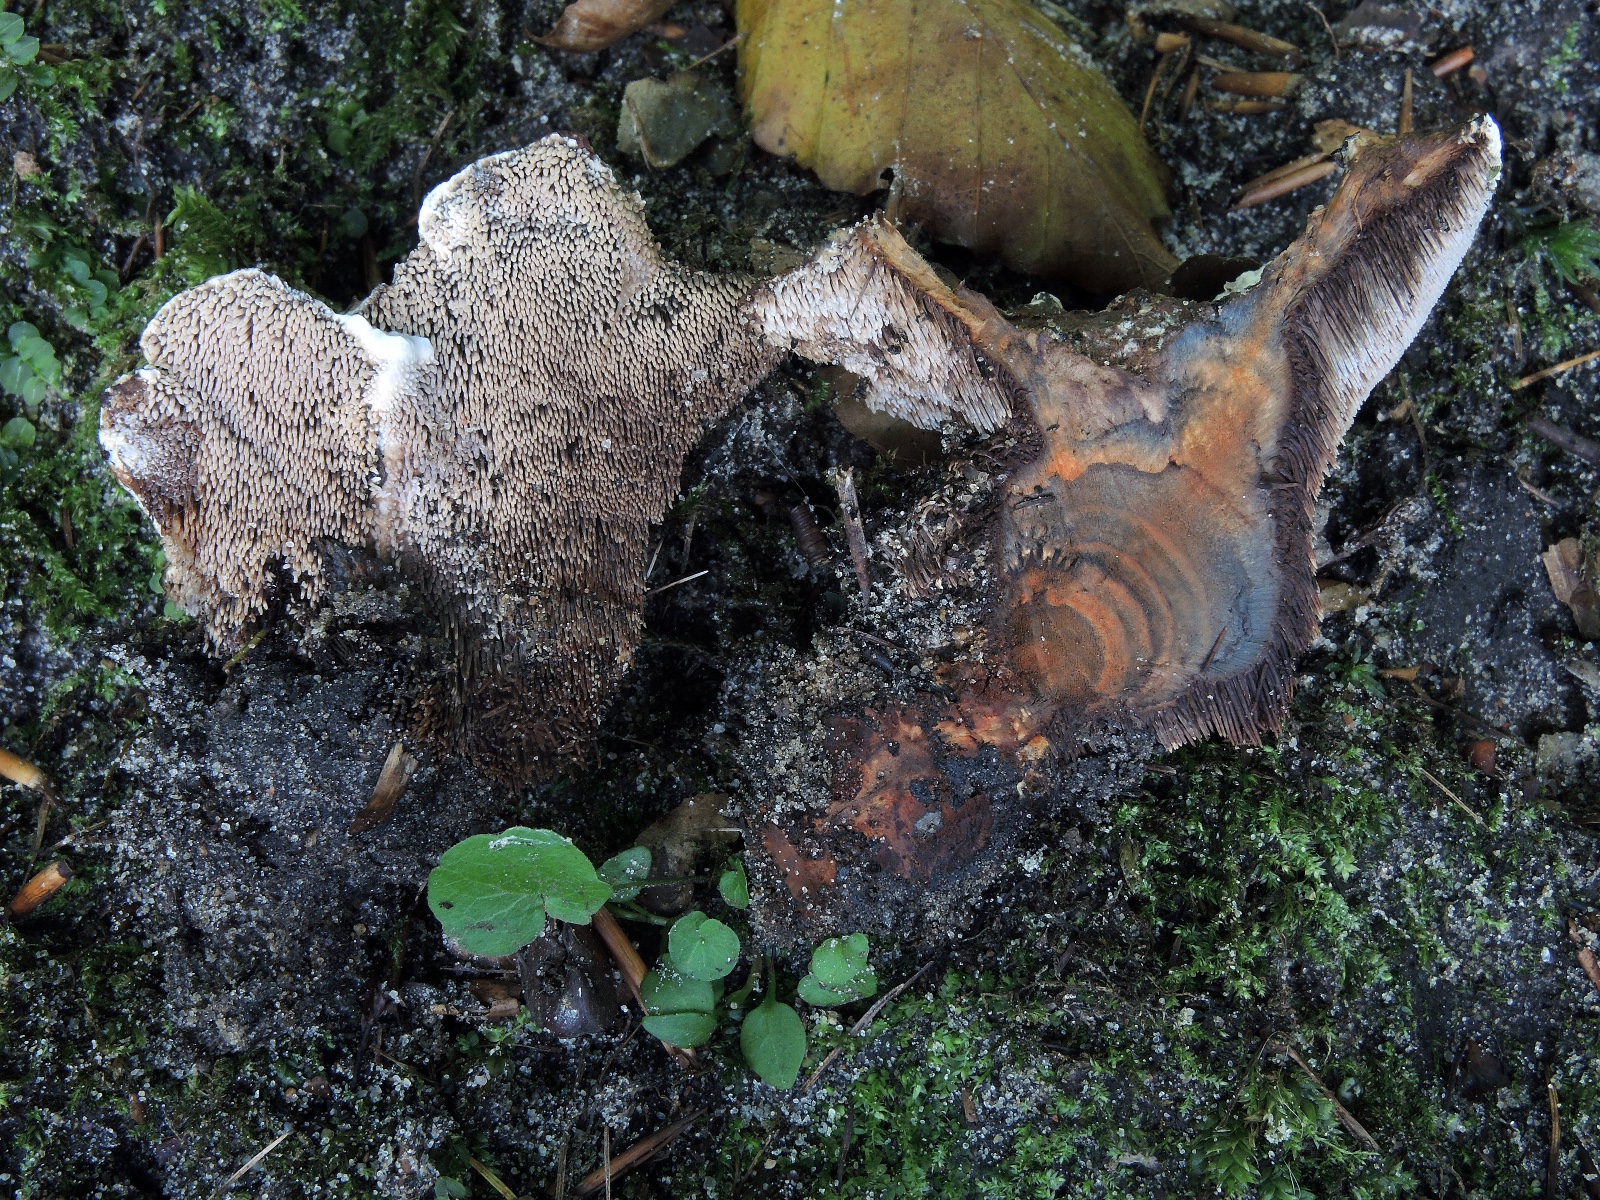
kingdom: Fungi
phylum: Basidiomycota
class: Agaricomycetes
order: Thelephorales
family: Bankeraceae
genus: Hydnellum
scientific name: Hydnellum caeruleum
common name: blålig korkpigsvamp
